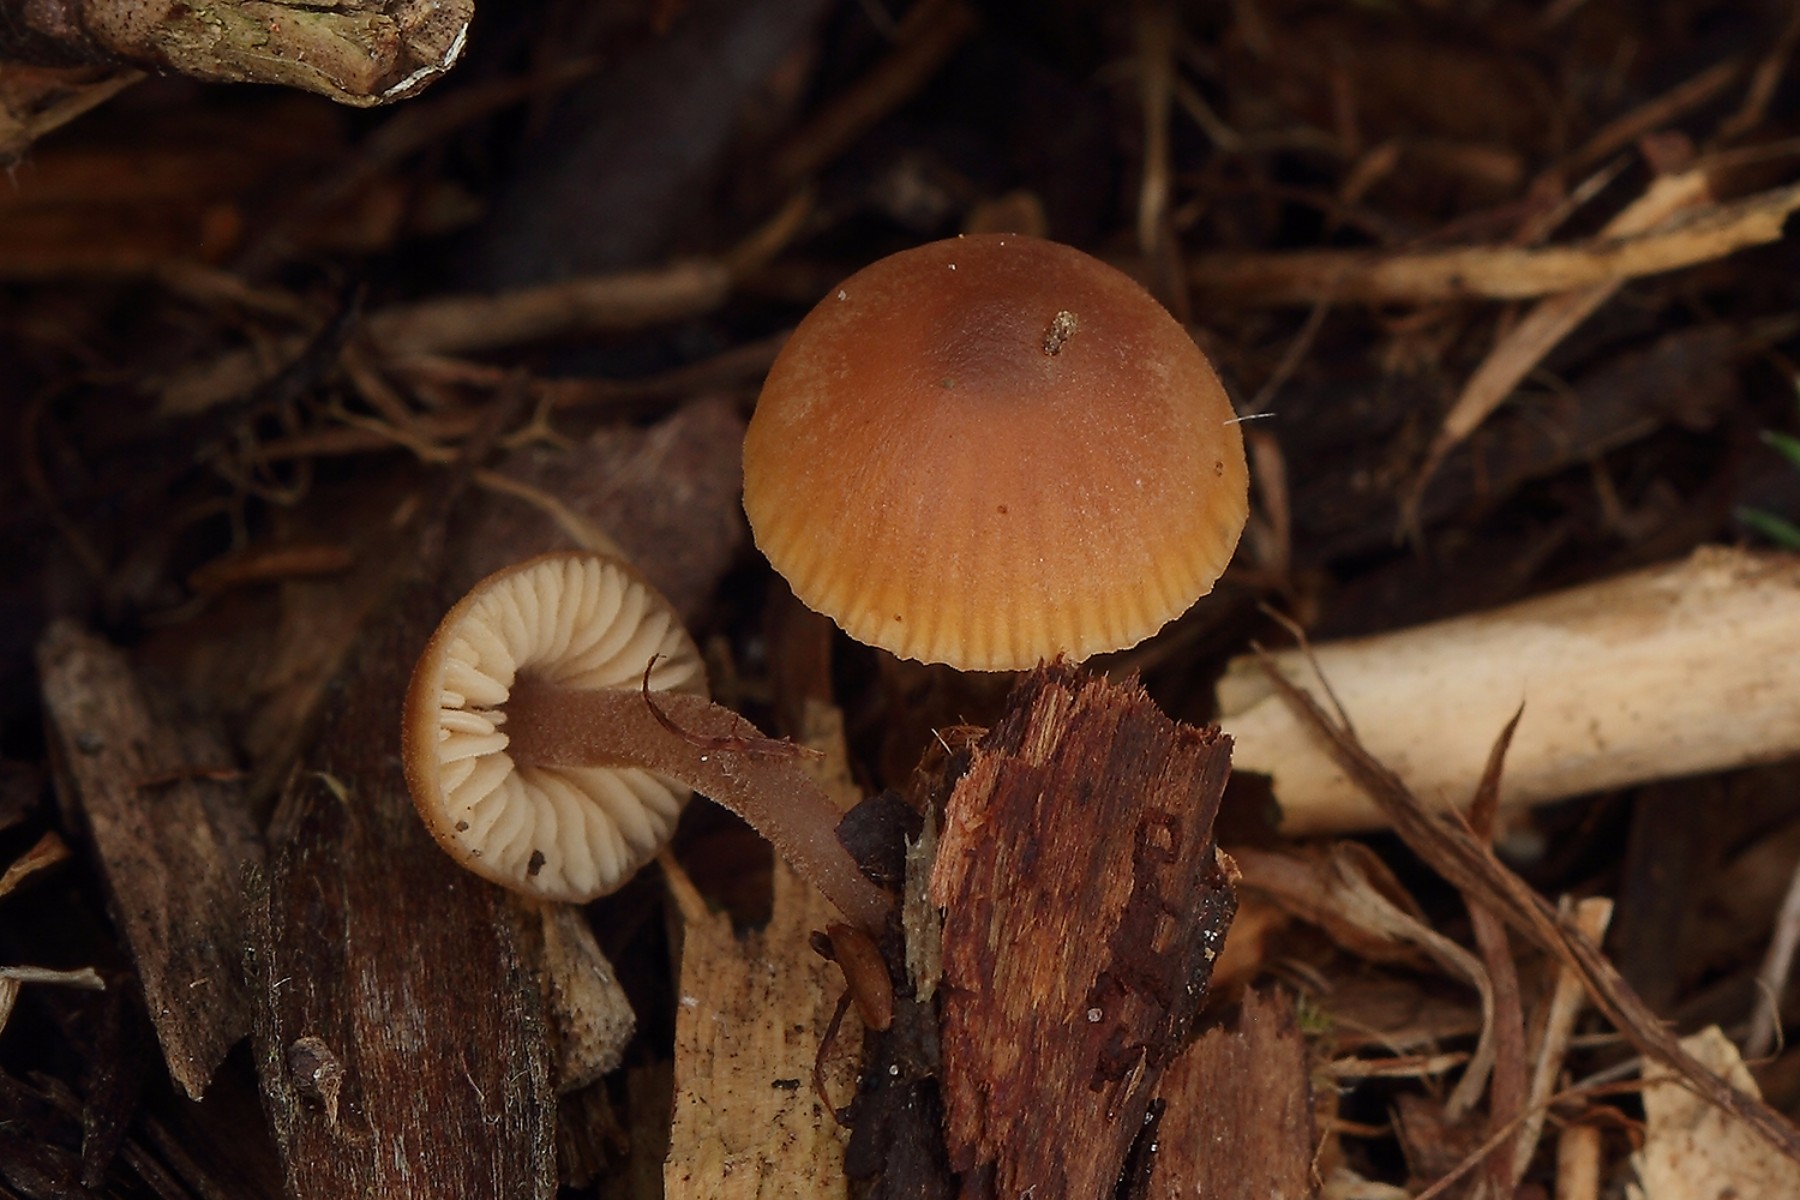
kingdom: Fungi
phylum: Basidiomycota
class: Agaricomycetes
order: Agaricales
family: Macrocystidiaceae
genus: Macrocystidia
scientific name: Macrocystidia cucumis
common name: Cucumber cap
